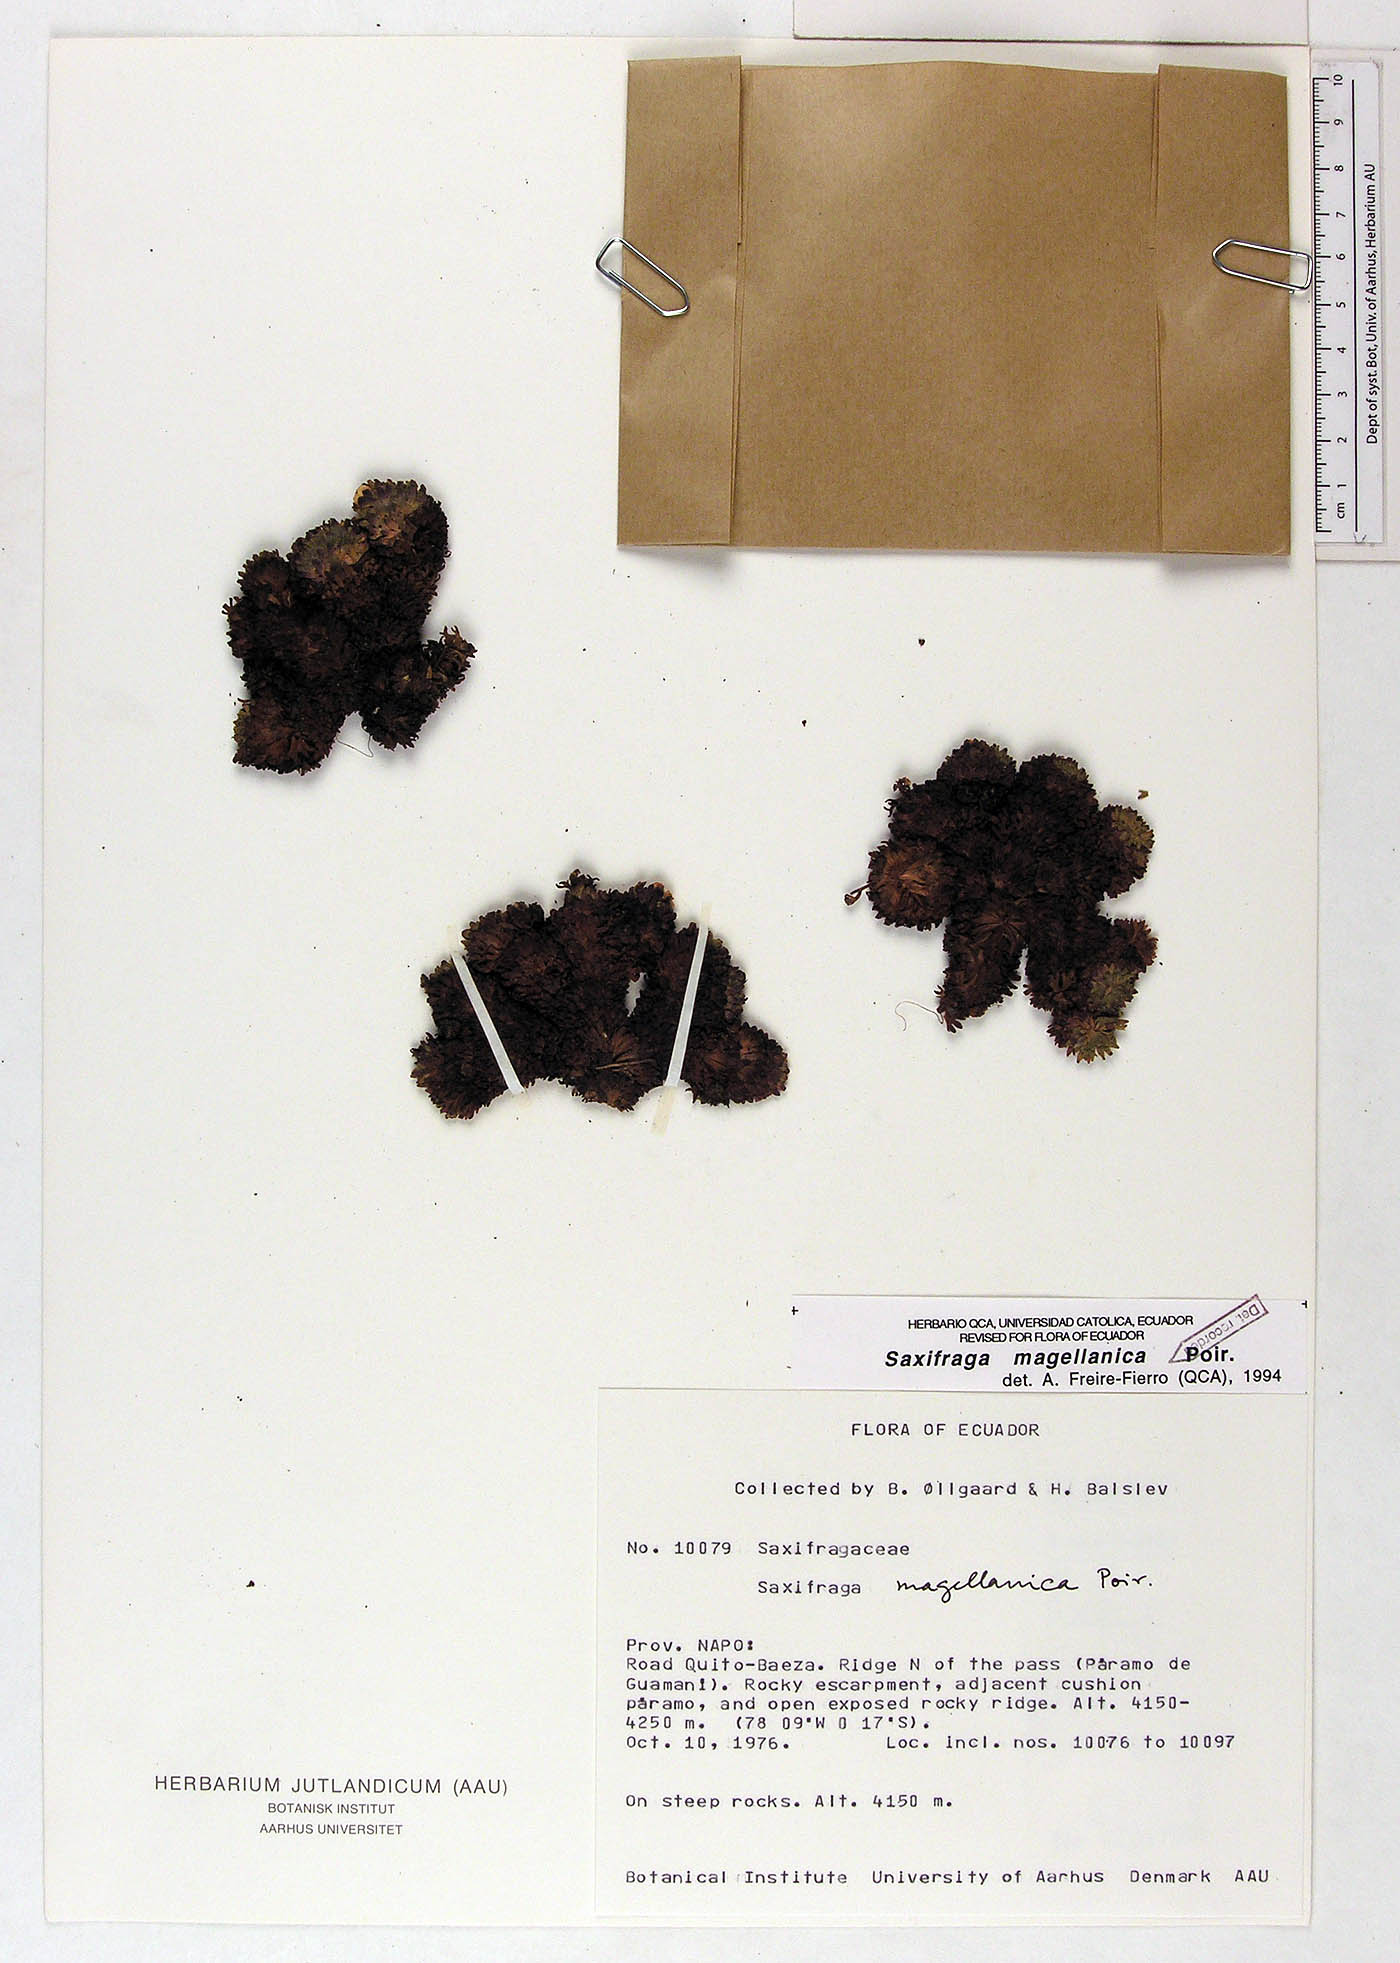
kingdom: Plantae
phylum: Tracheophyta
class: Magnoliopsida
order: Saxifragales
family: Saxifragaceae
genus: Saxifraga
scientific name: Saxifraga magellanica
